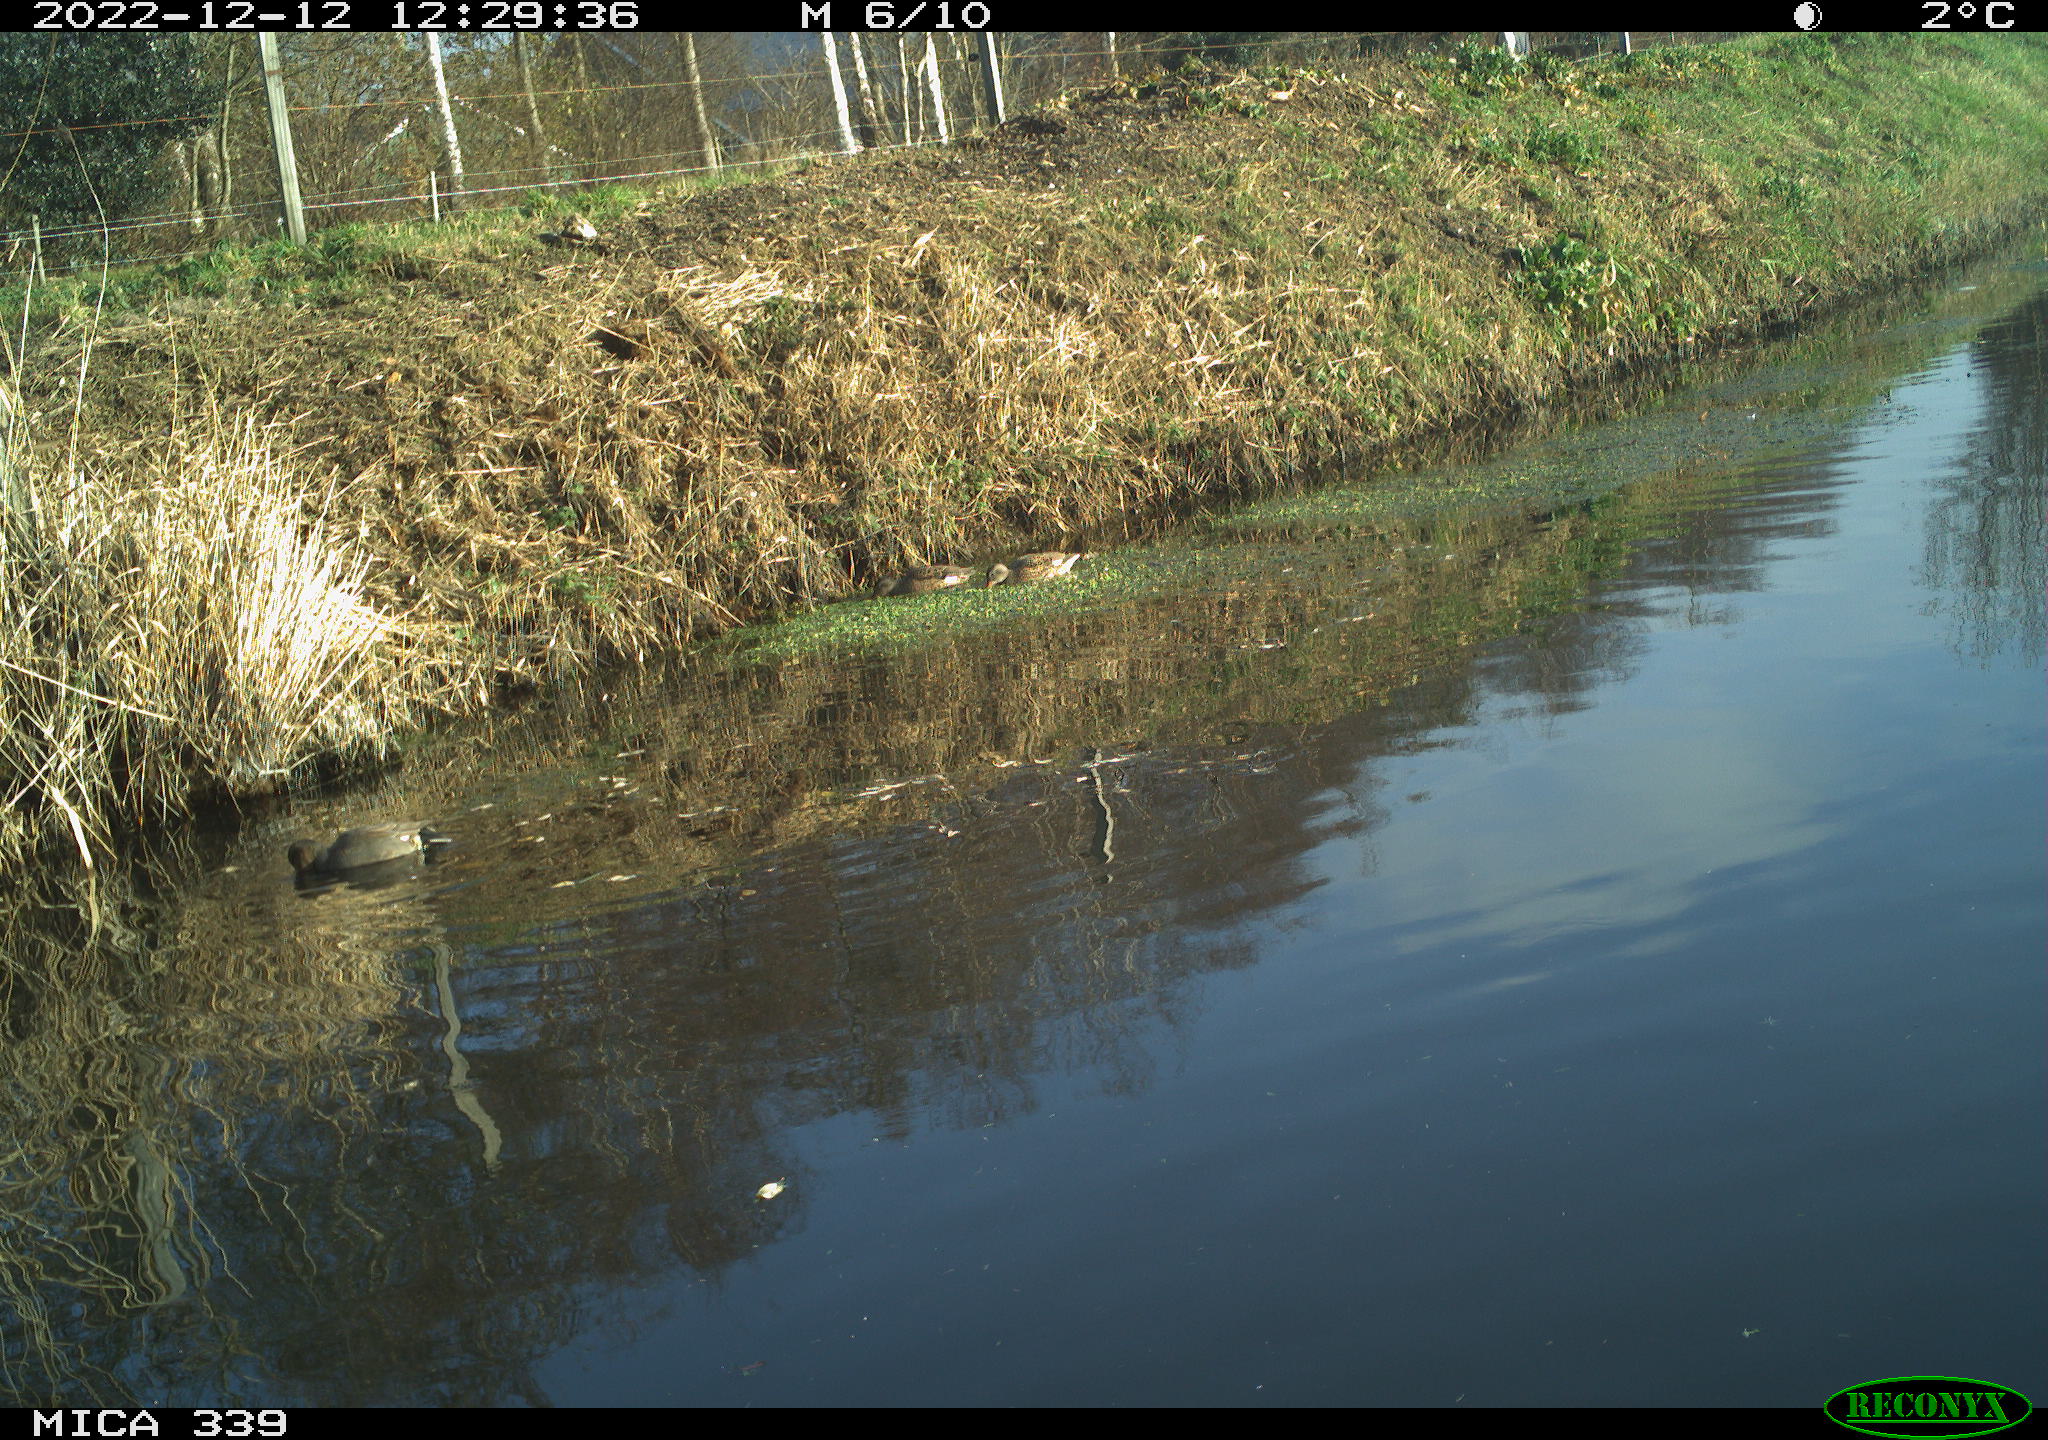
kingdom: Animalia
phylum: Chordata
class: Aves
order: Anseriformes
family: Anatidae
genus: Anas
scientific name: Anas
